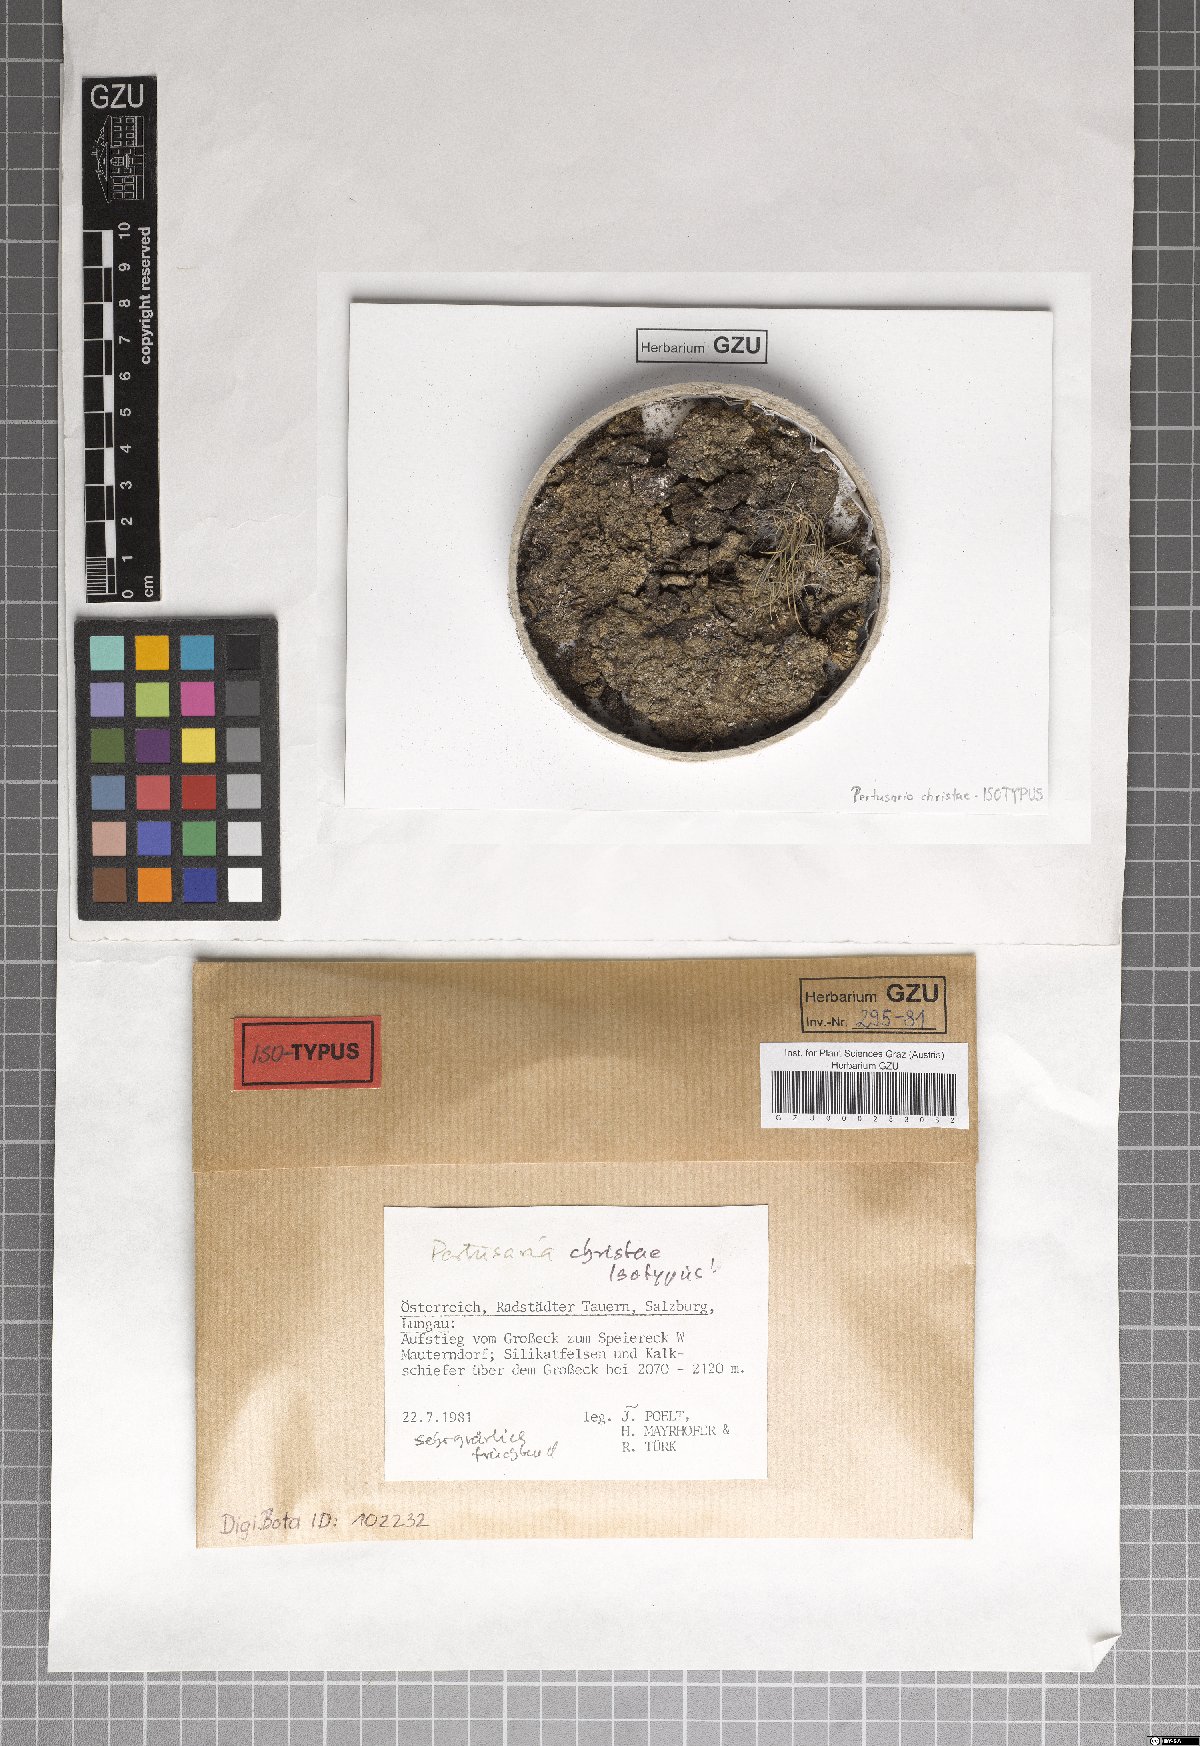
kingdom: Fungi
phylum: Ascomycota
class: Lecanoromycetes
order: Pertusariales
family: Pertusariaceae
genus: Pertusaria
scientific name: Pertusaria
